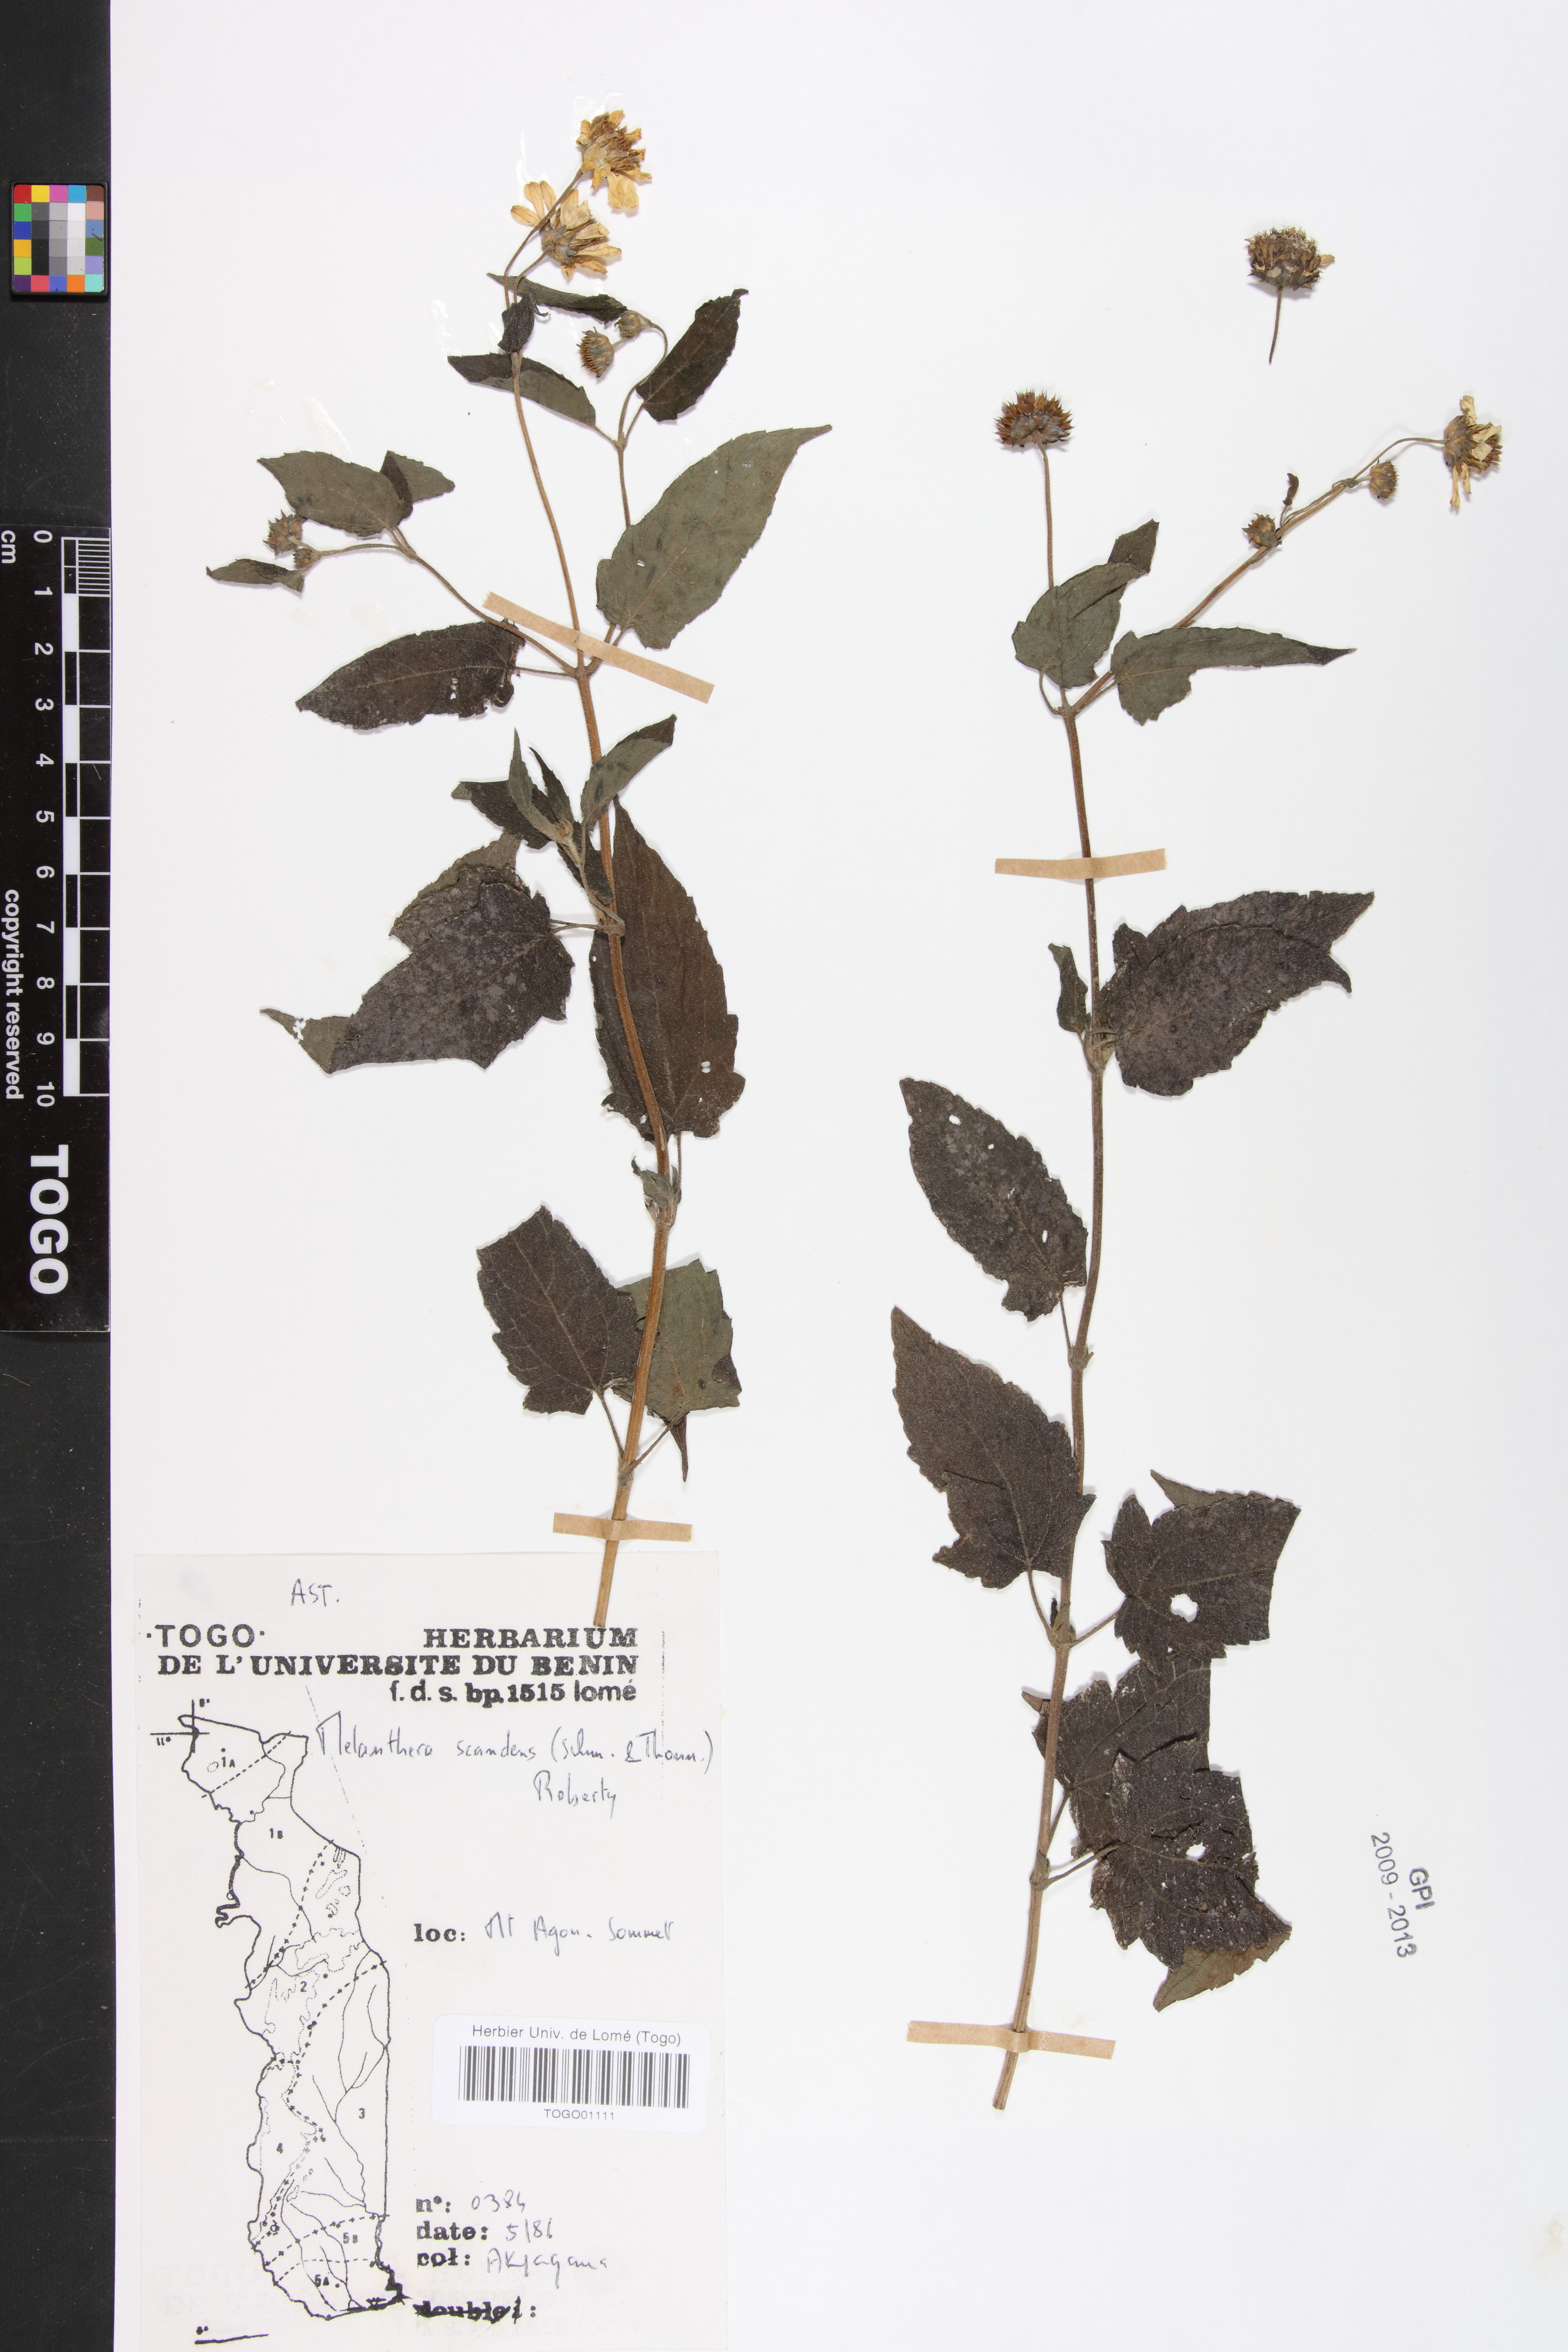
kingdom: Plantae
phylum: Tracheophyta
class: Magnoliopsida
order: Asterales
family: Asteraceae
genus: Melanthera
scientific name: Melanthera scandens
